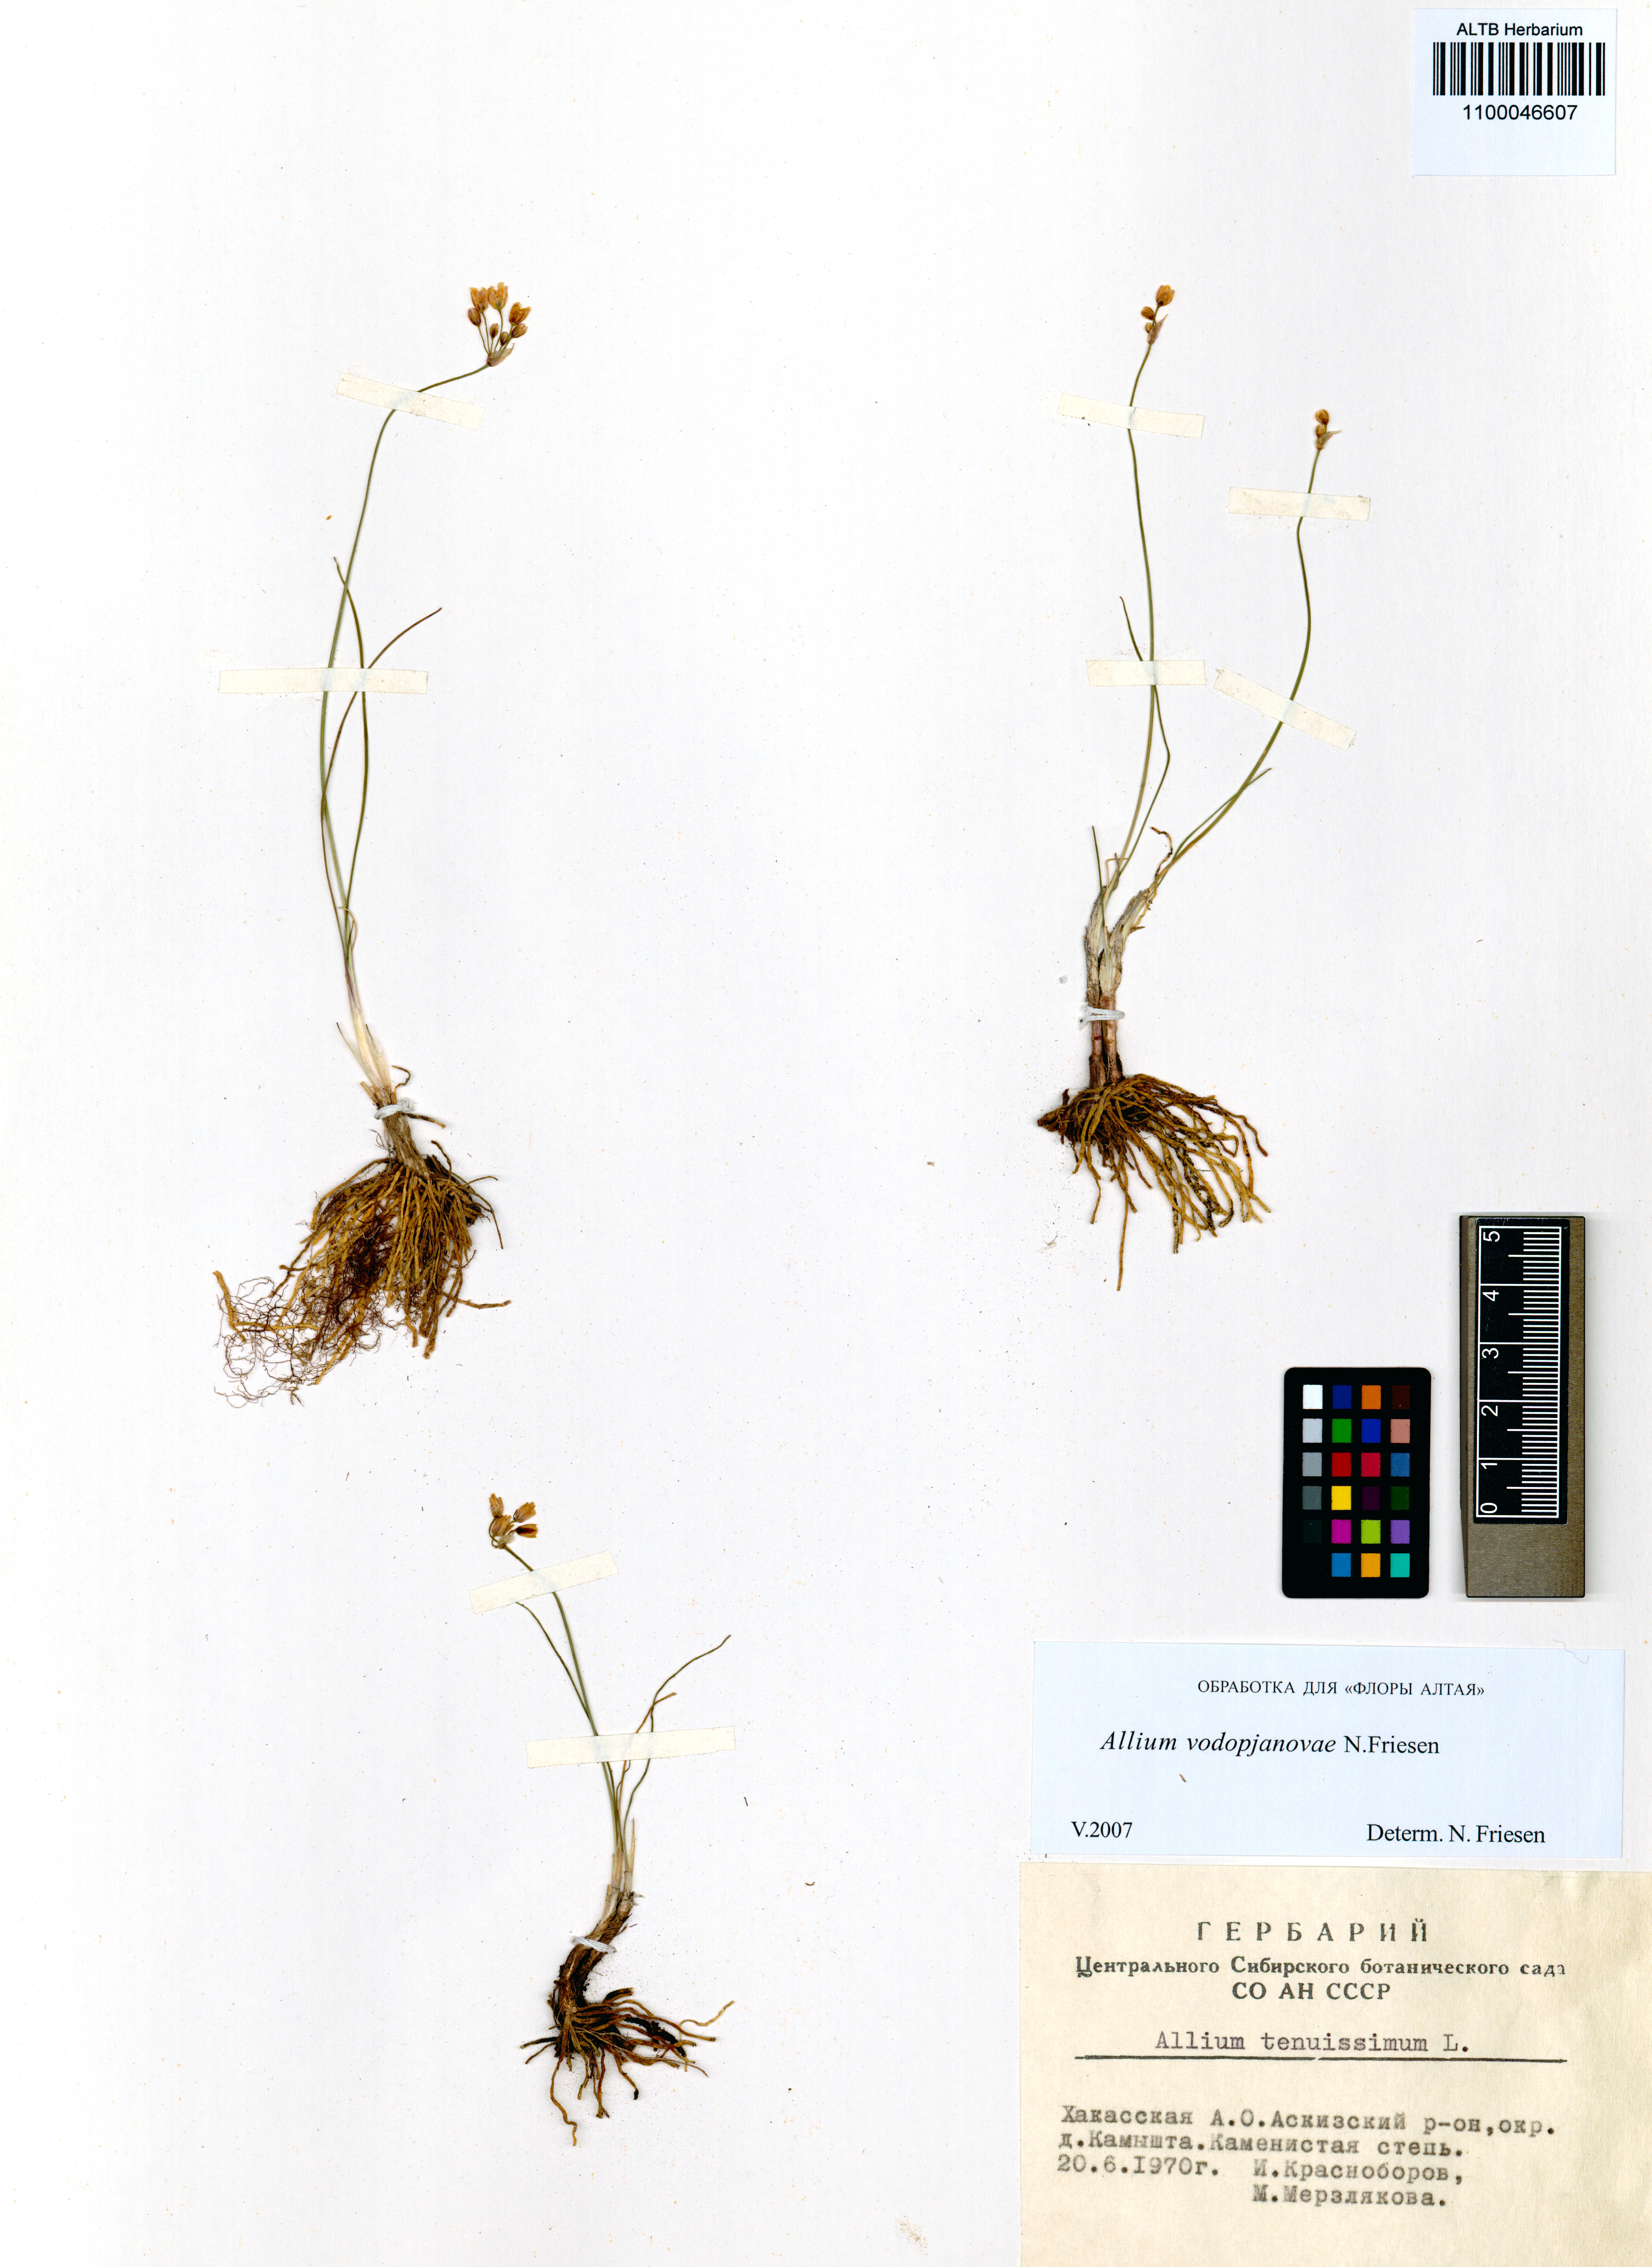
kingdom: Plantae
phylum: Tracheophyta
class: Liliopsida
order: Asparagales
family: Amaryllidaceae
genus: Allium
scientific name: Allium vodopjanovae
